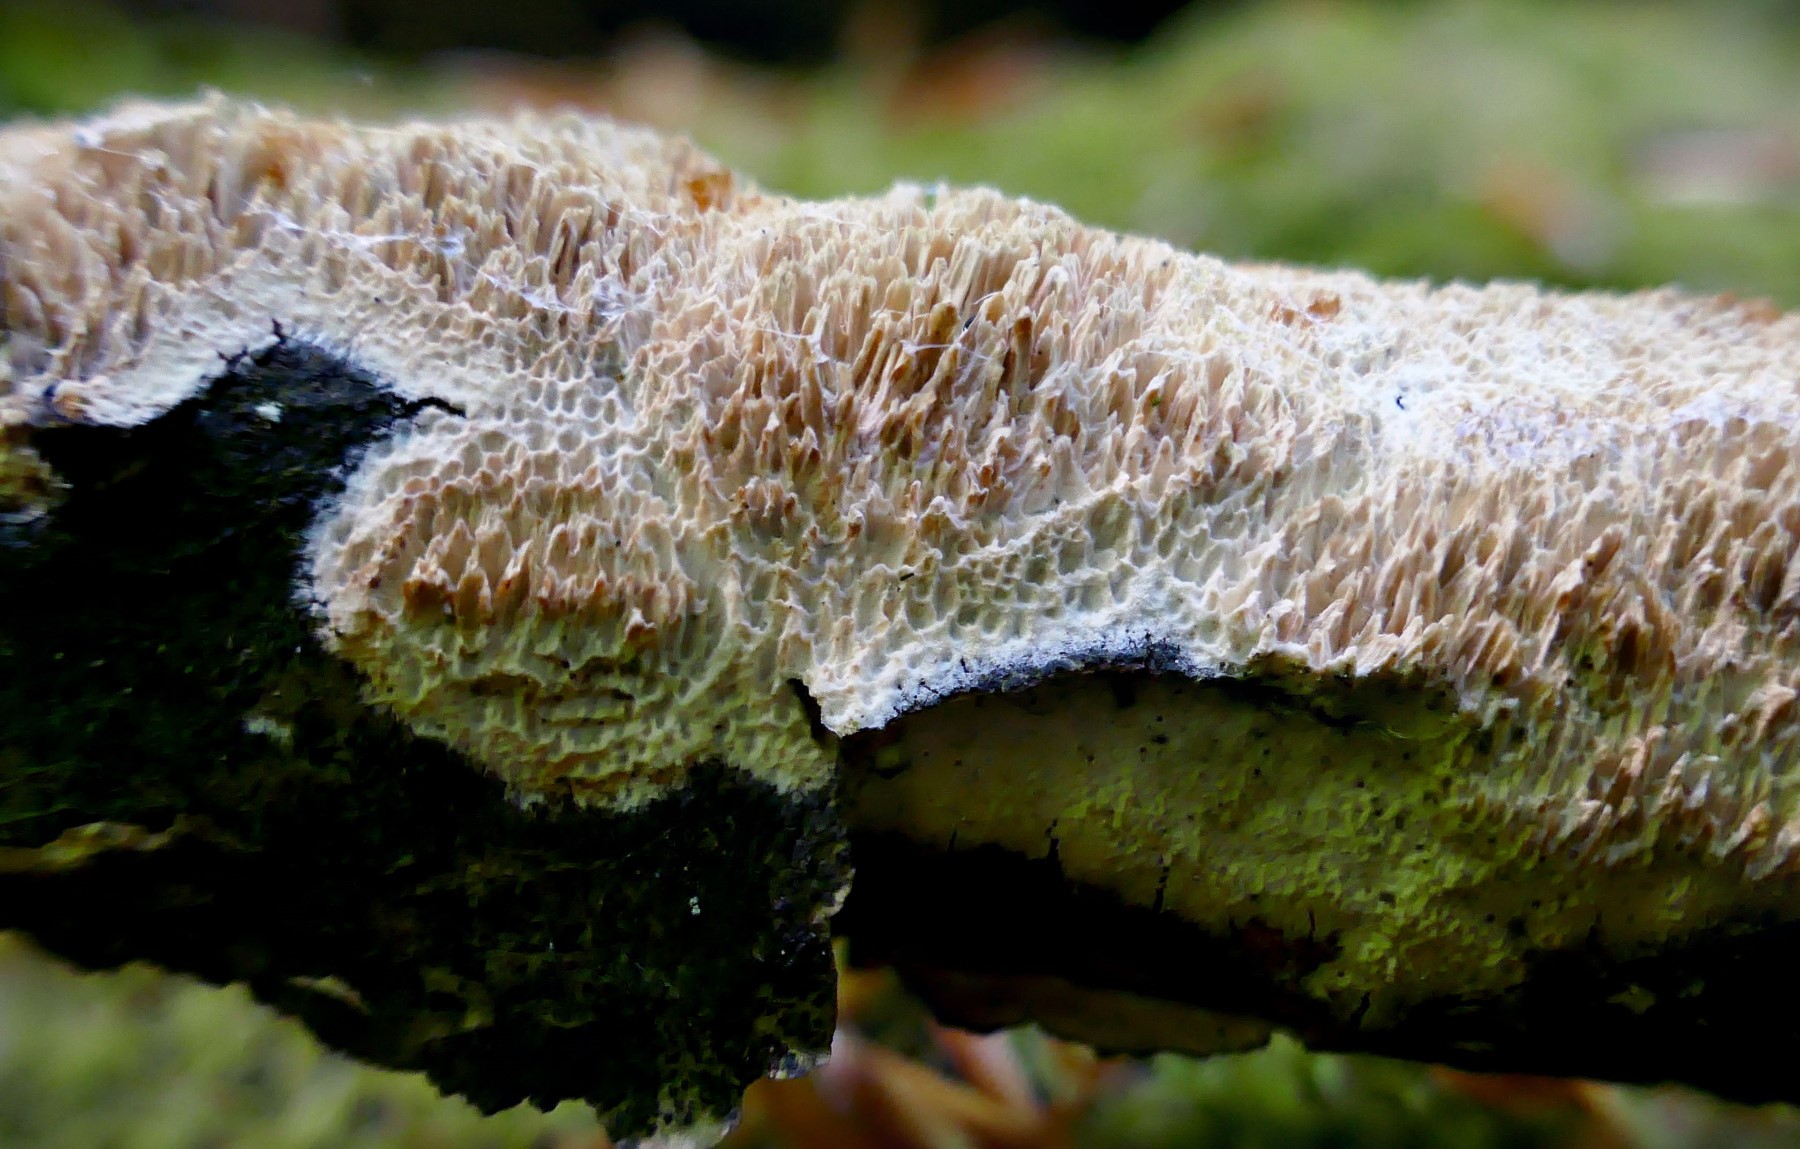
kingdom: Fungi
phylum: Basidiomycota
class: Agaricomycetes
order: Hymenochaetales
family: Schizoporaceae
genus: Xylodon
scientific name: Xylodon
